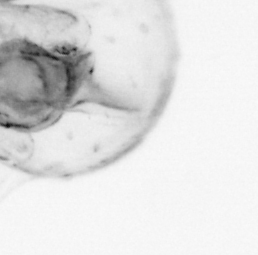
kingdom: Animalia
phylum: Chaetognatha
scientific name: Chaetognatha
